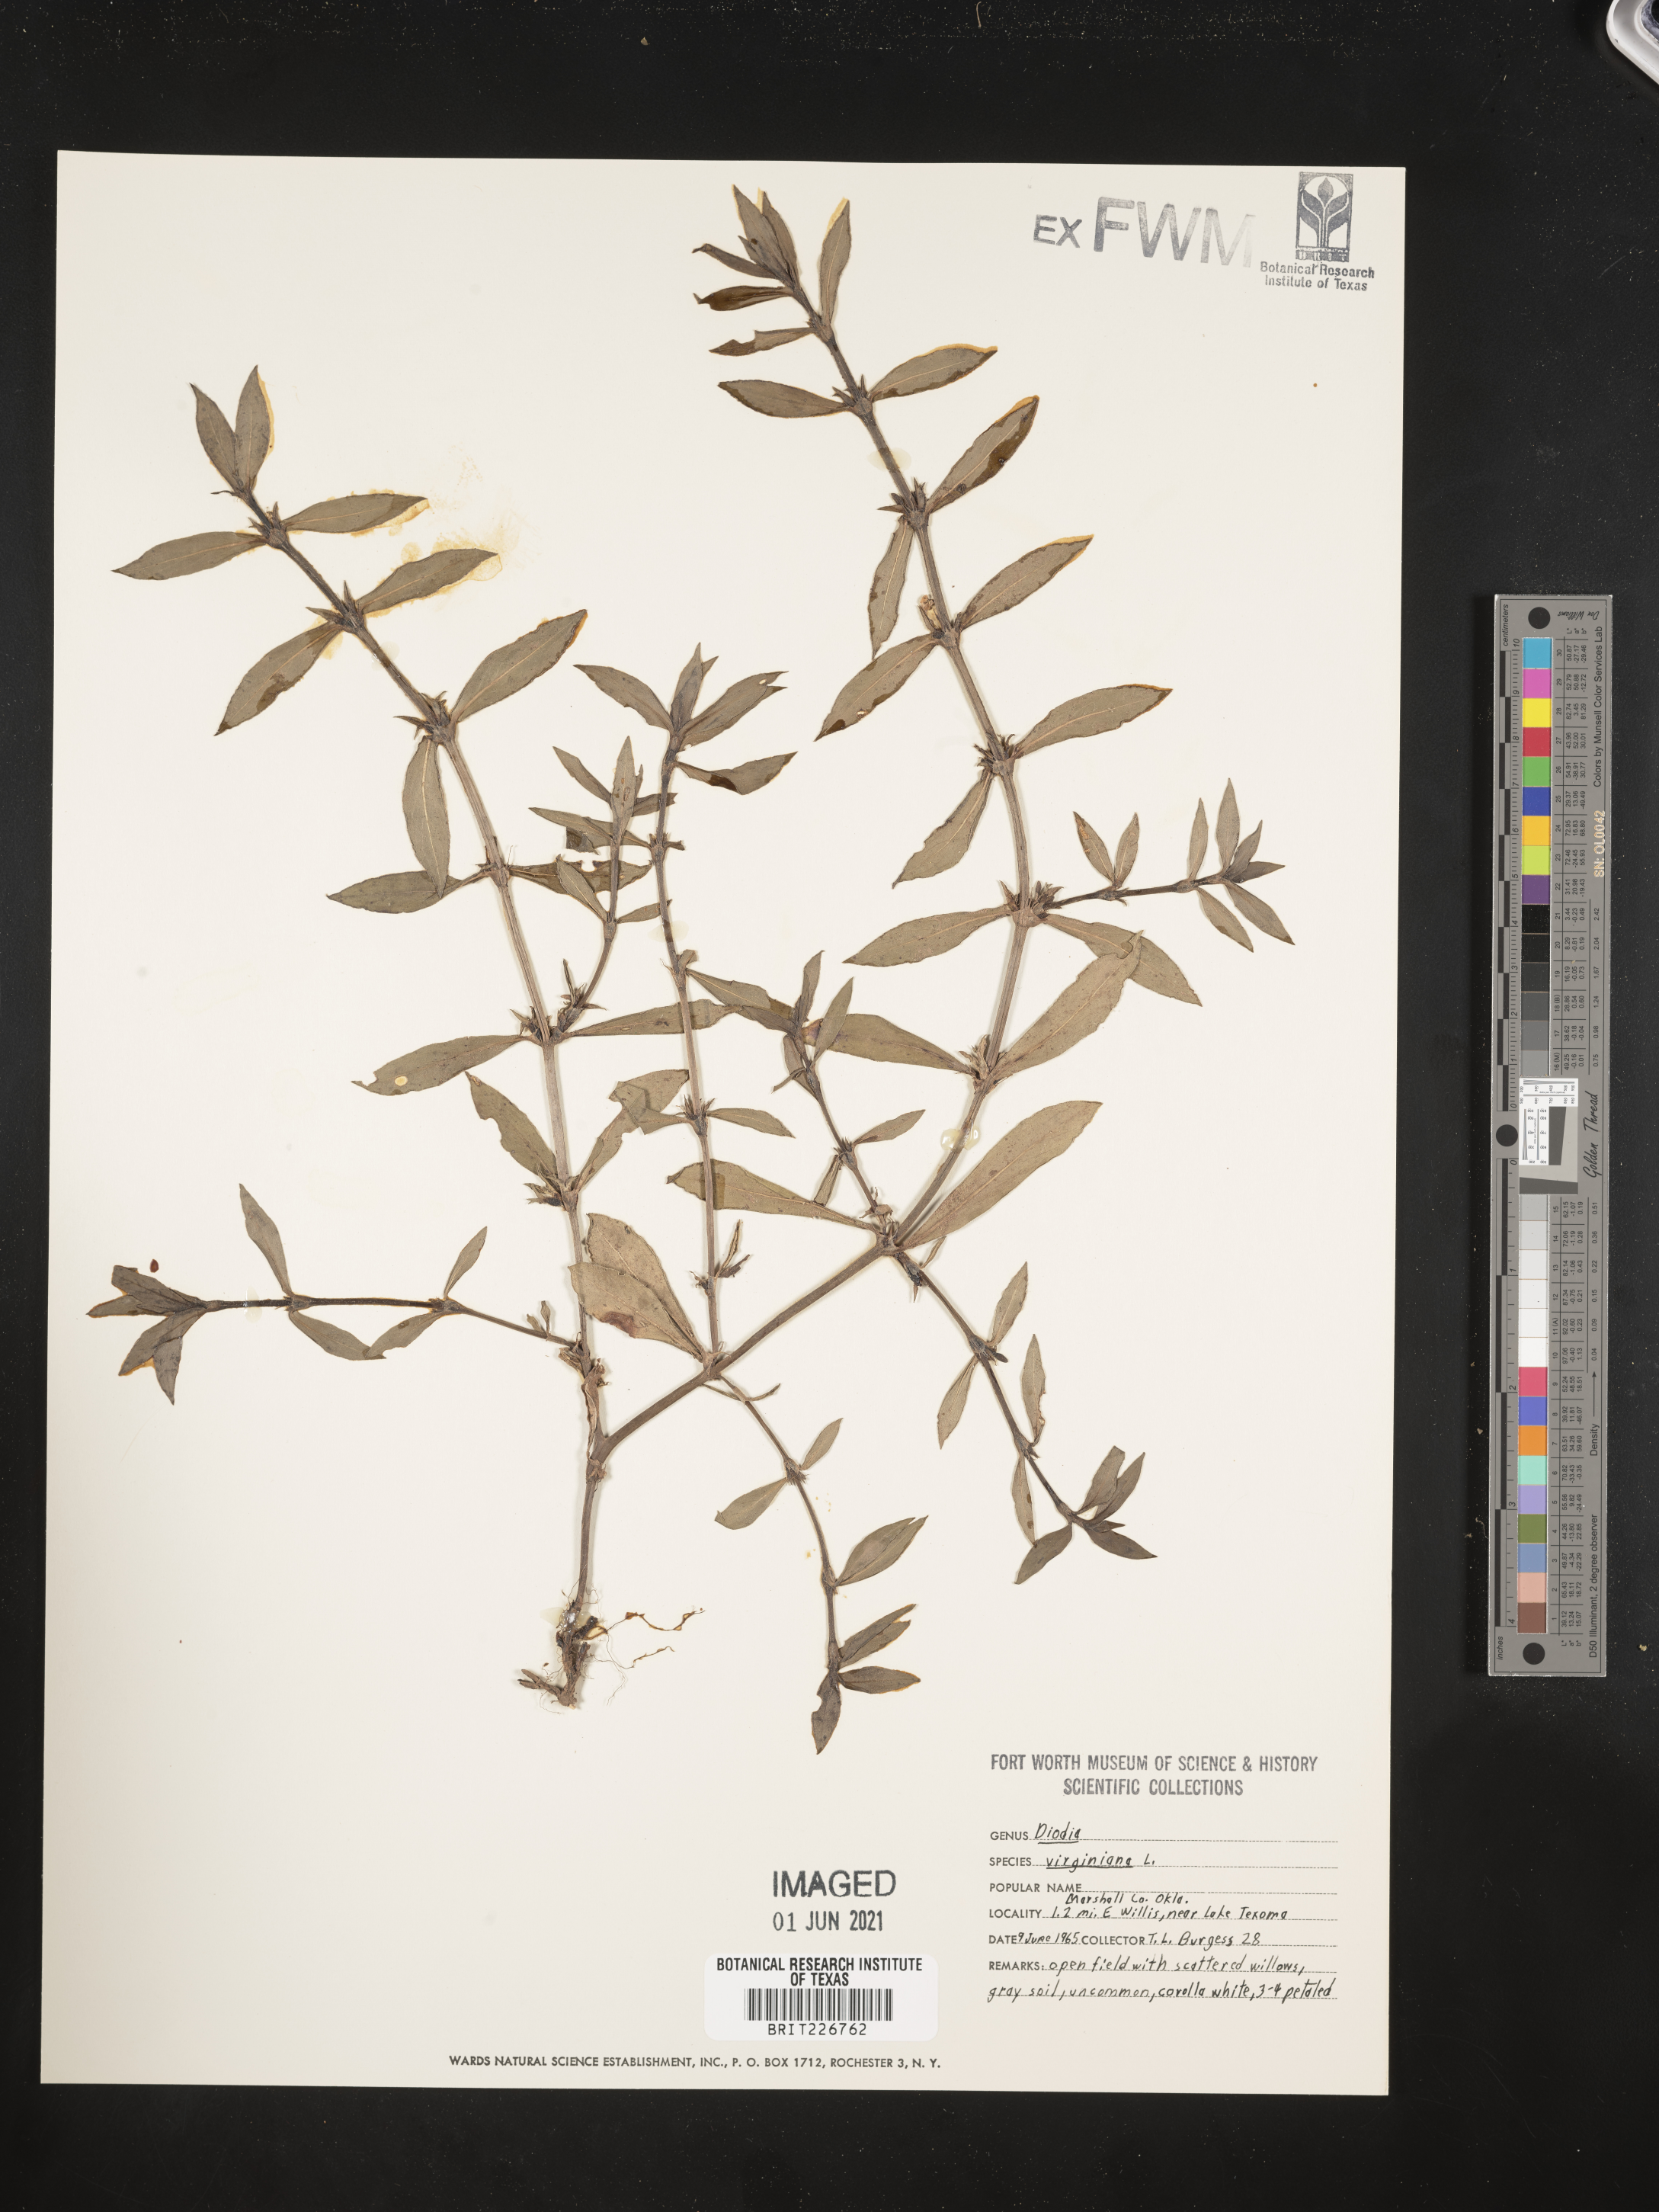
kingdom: Plantae
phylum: Tracheophyta
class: Magnoliopsida
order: Gentianales
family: Rubiaceae
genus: Diodia
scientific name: Diodia virginiana
